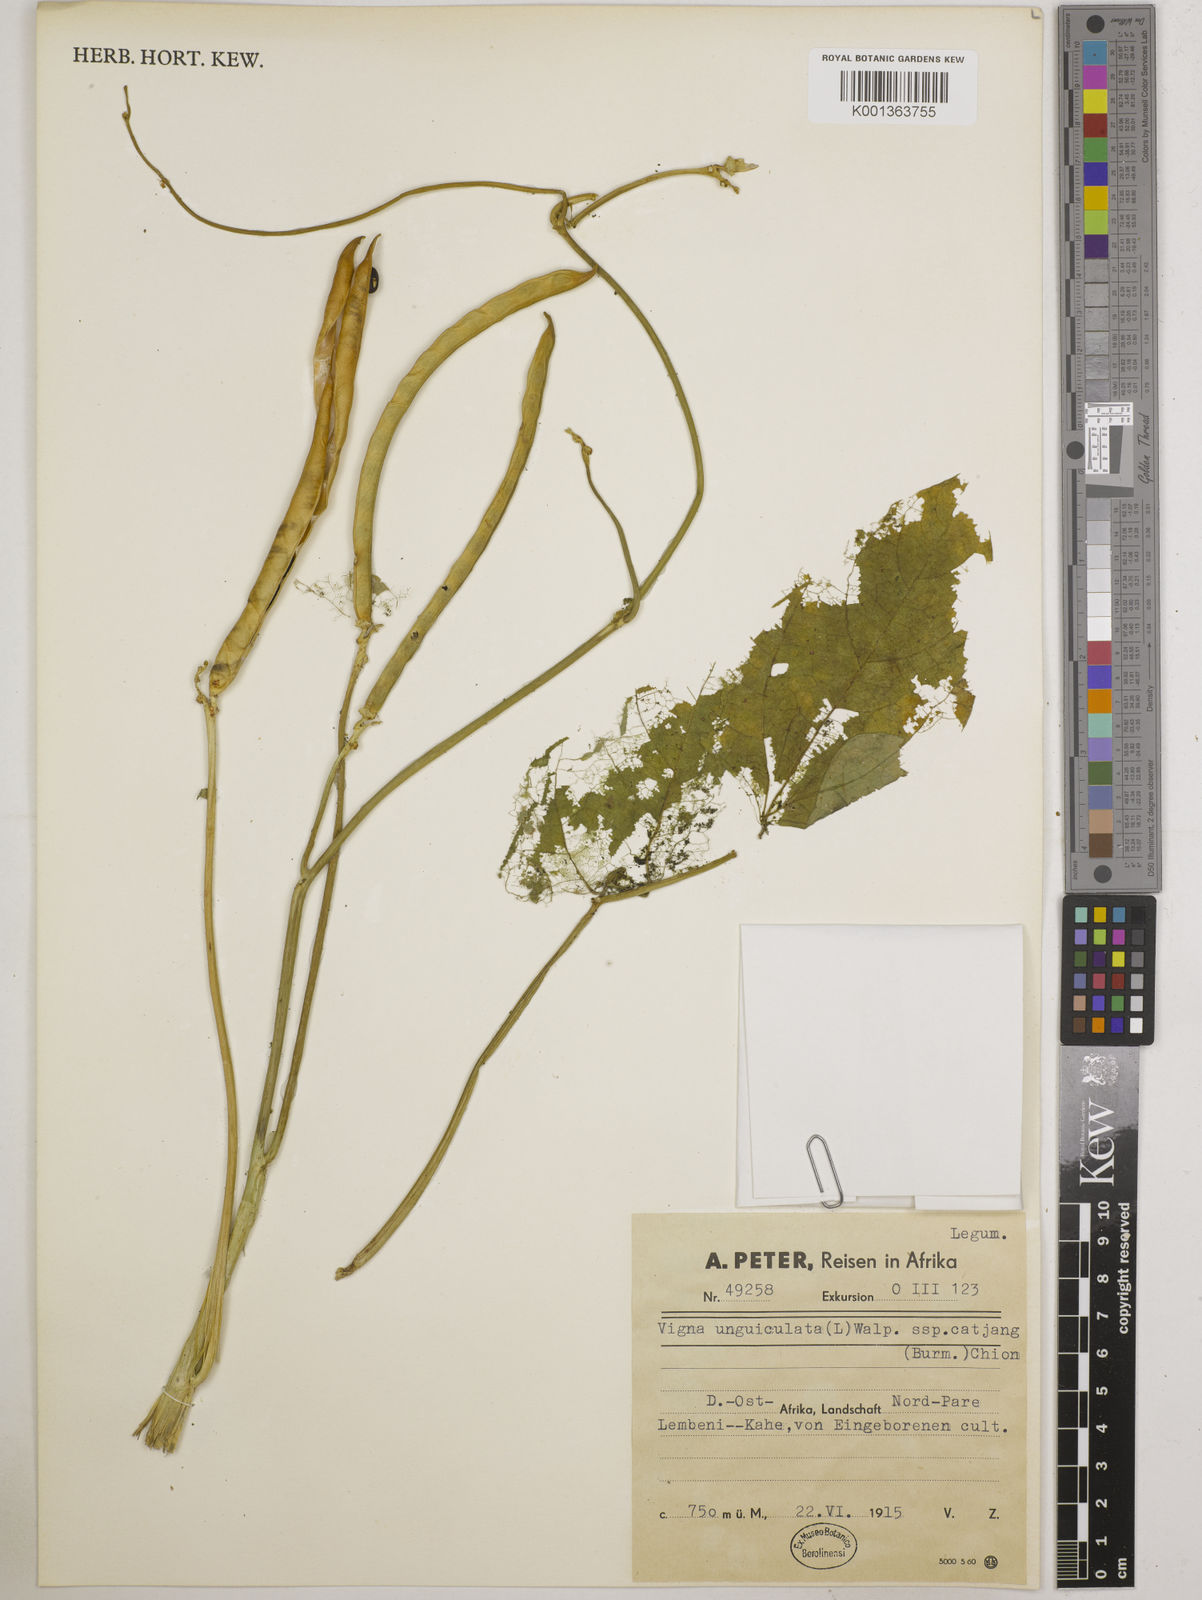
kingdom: Plantae
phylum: Tracheophyta
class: Magnoliopsida
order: Fabales
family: Fabaceae
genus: Vigna
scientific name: Vigna unguiculata
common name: Cowpea
